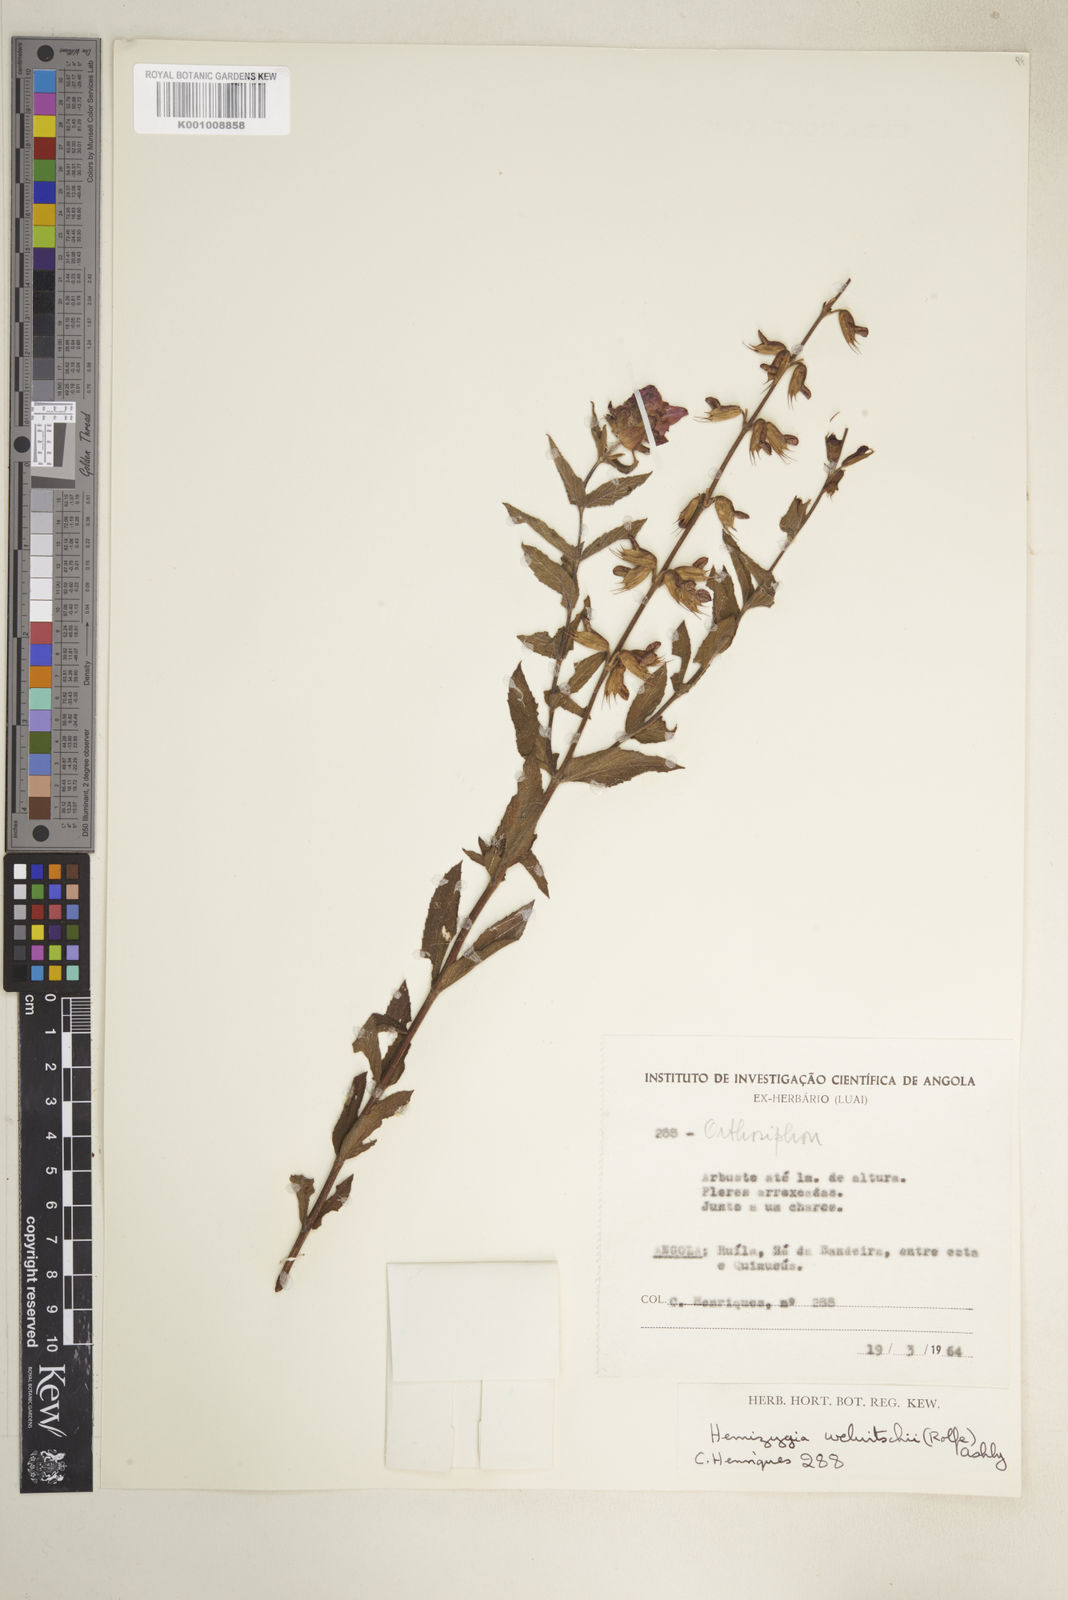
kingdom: Plantae
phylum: Tracheophyta
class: Magnoliopsida
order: Lamiales
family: Lamiaceae
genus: Syncolostemon
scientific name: Syncolostemon welwitschii
